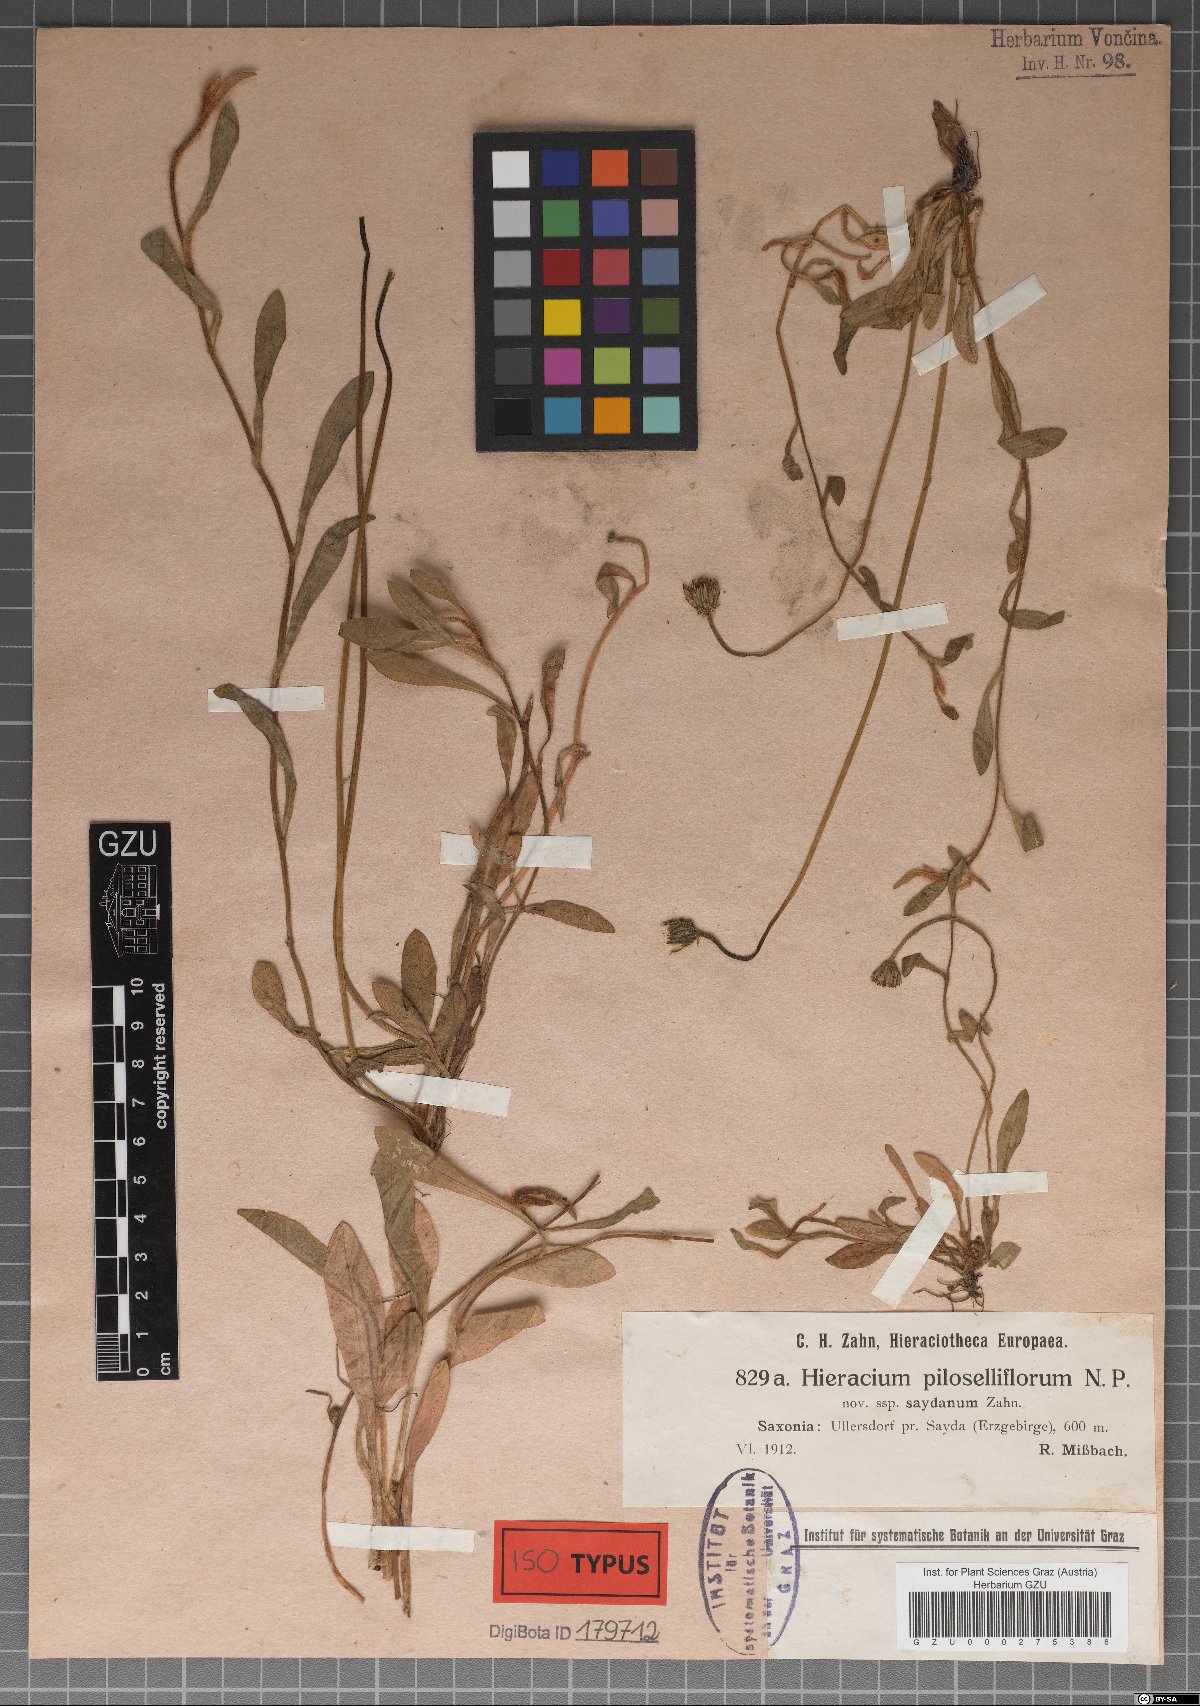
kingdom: Plantae
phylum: Tracheophyta
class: Magnoliopsida
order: Asterales
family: Asteraceae
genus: Pilosella
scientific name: Pilosella piloselliflora
